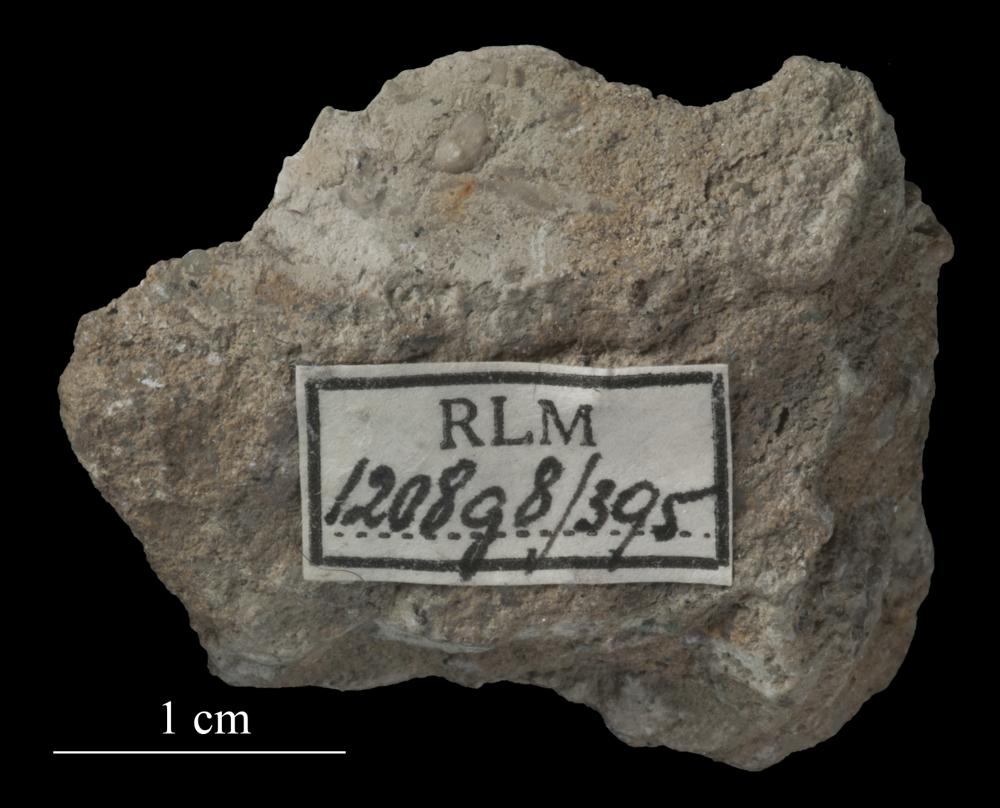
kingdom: Animalia
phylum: Mollusca
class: Gastropoda
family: Lesueurillidae
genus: Pararaphistoma
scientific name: Pararaphistoma Helicites qualteriata
